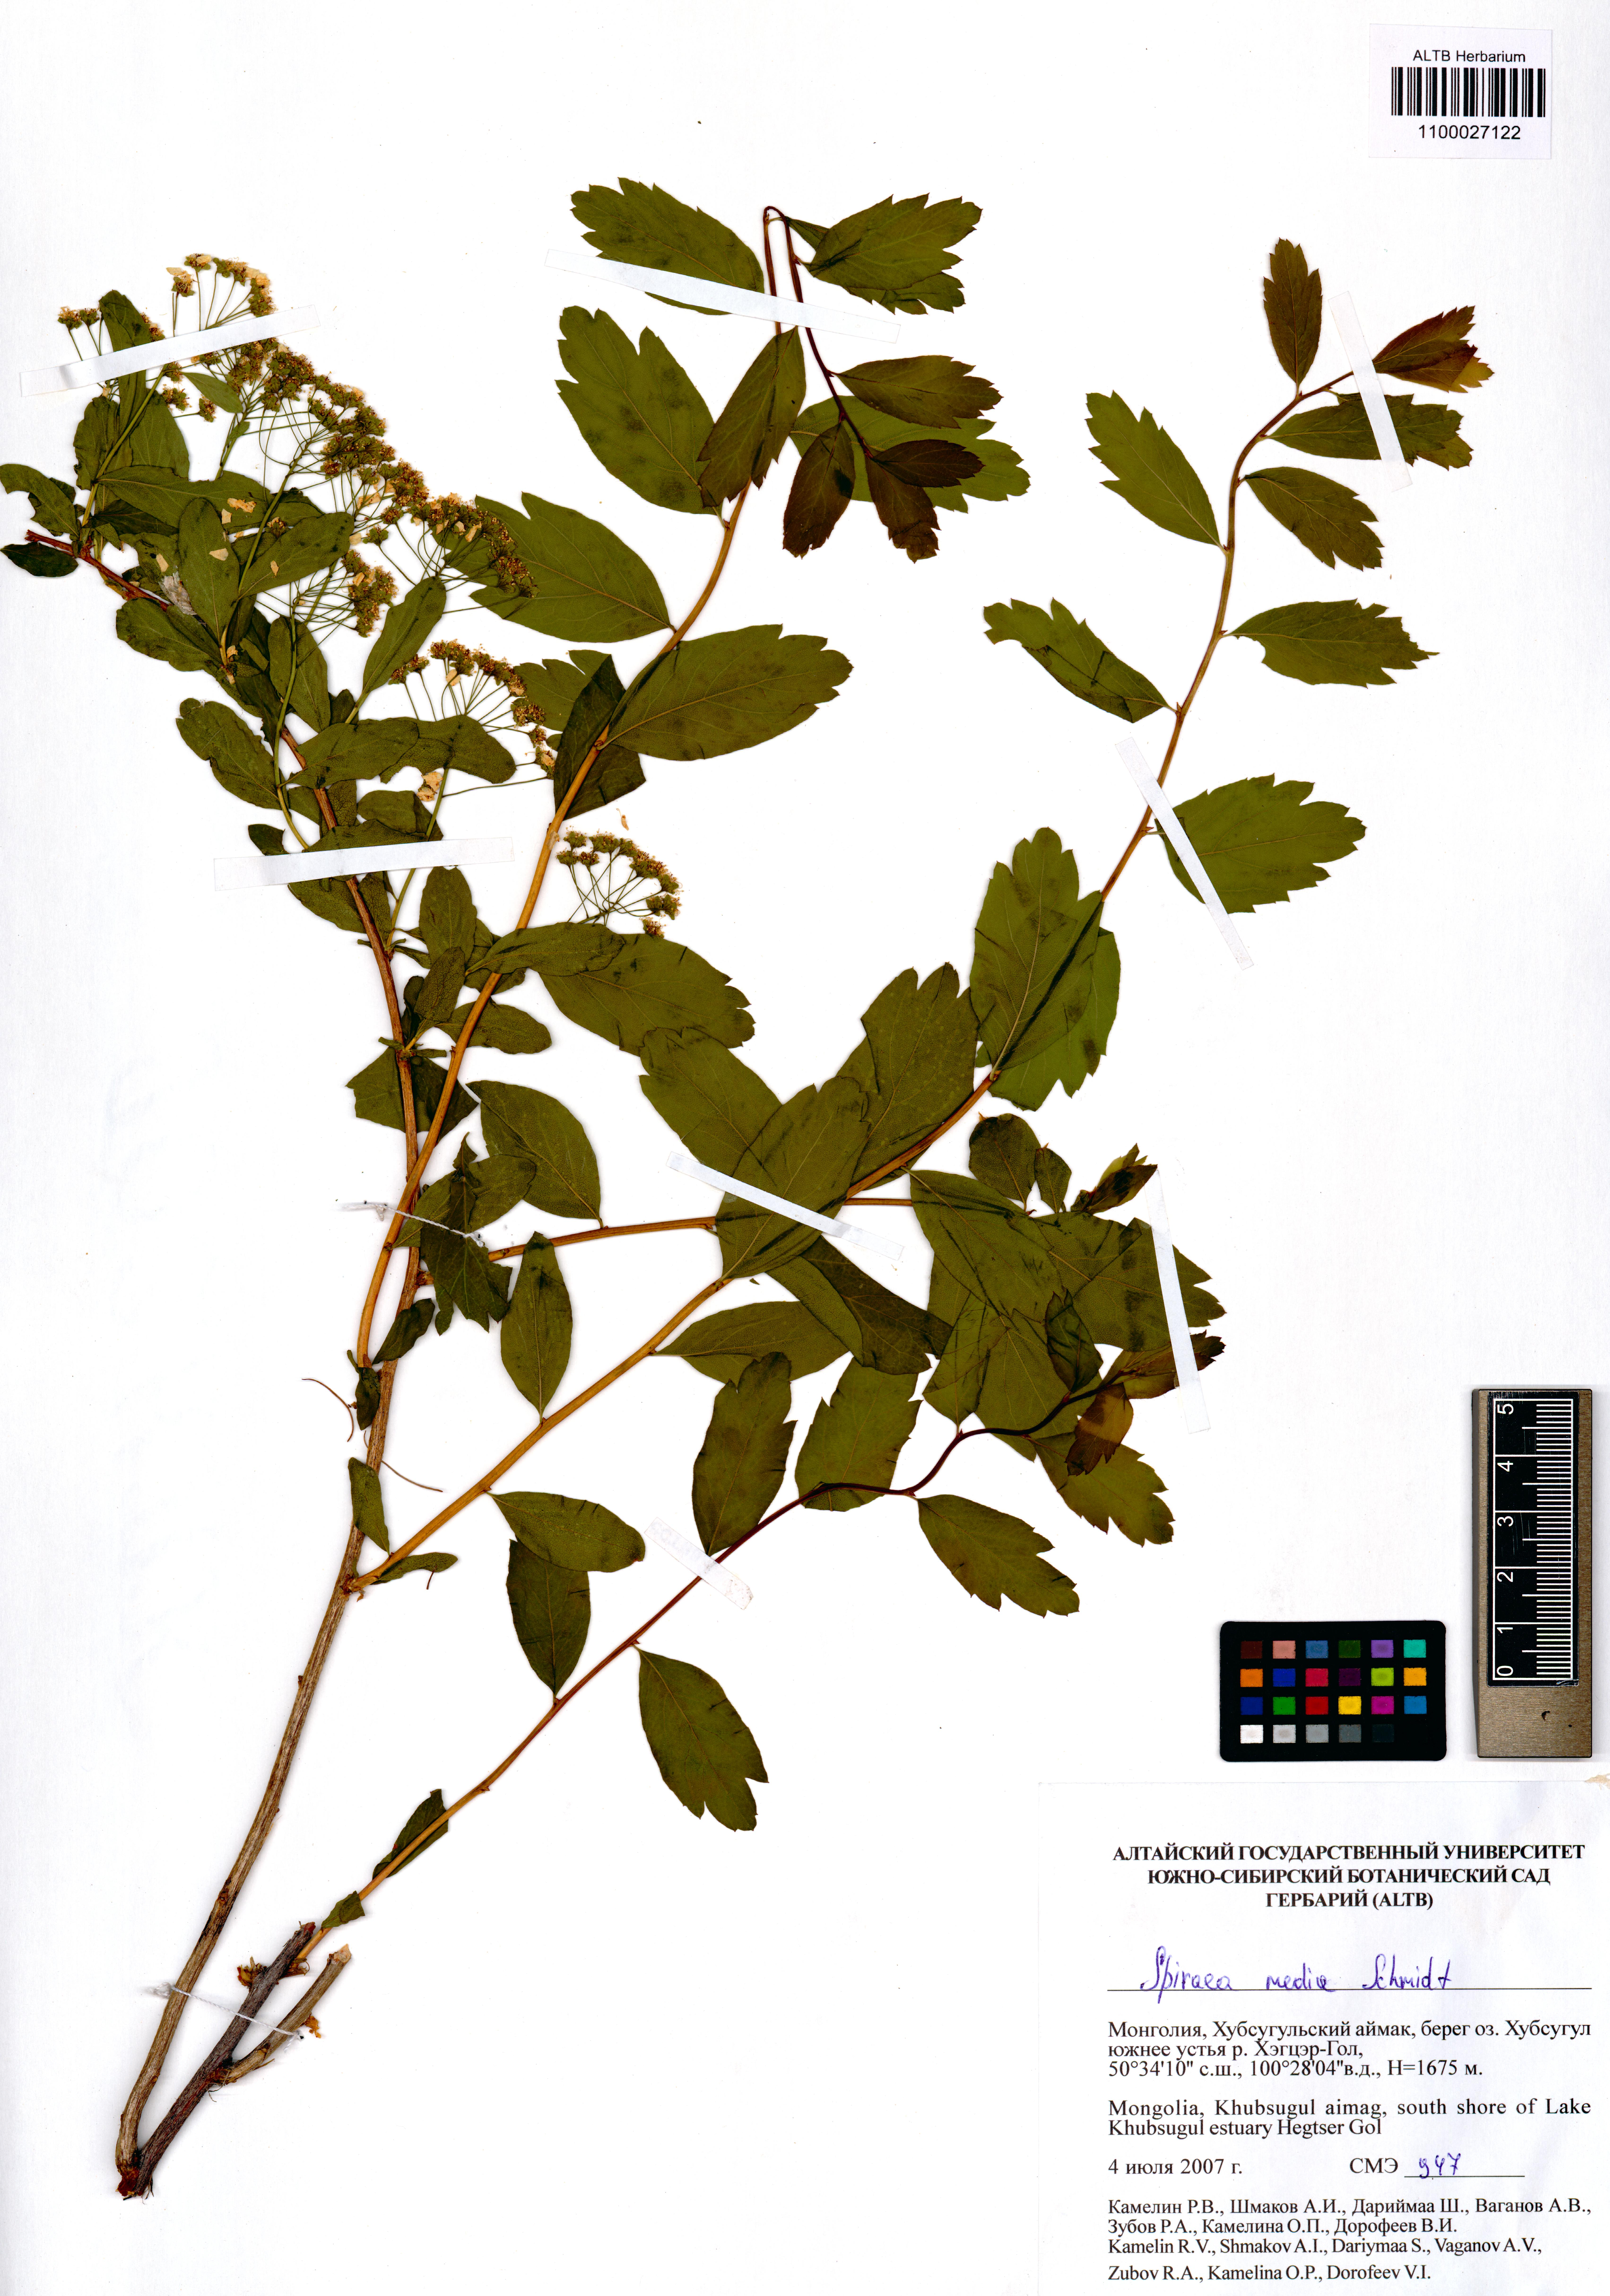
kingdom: Plantae
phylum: Tracheophyta
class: Magnoliopsida
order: Rosales
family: Rosaceae
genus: Spiraea
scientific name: Spiraea media
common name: Russian spiraea
